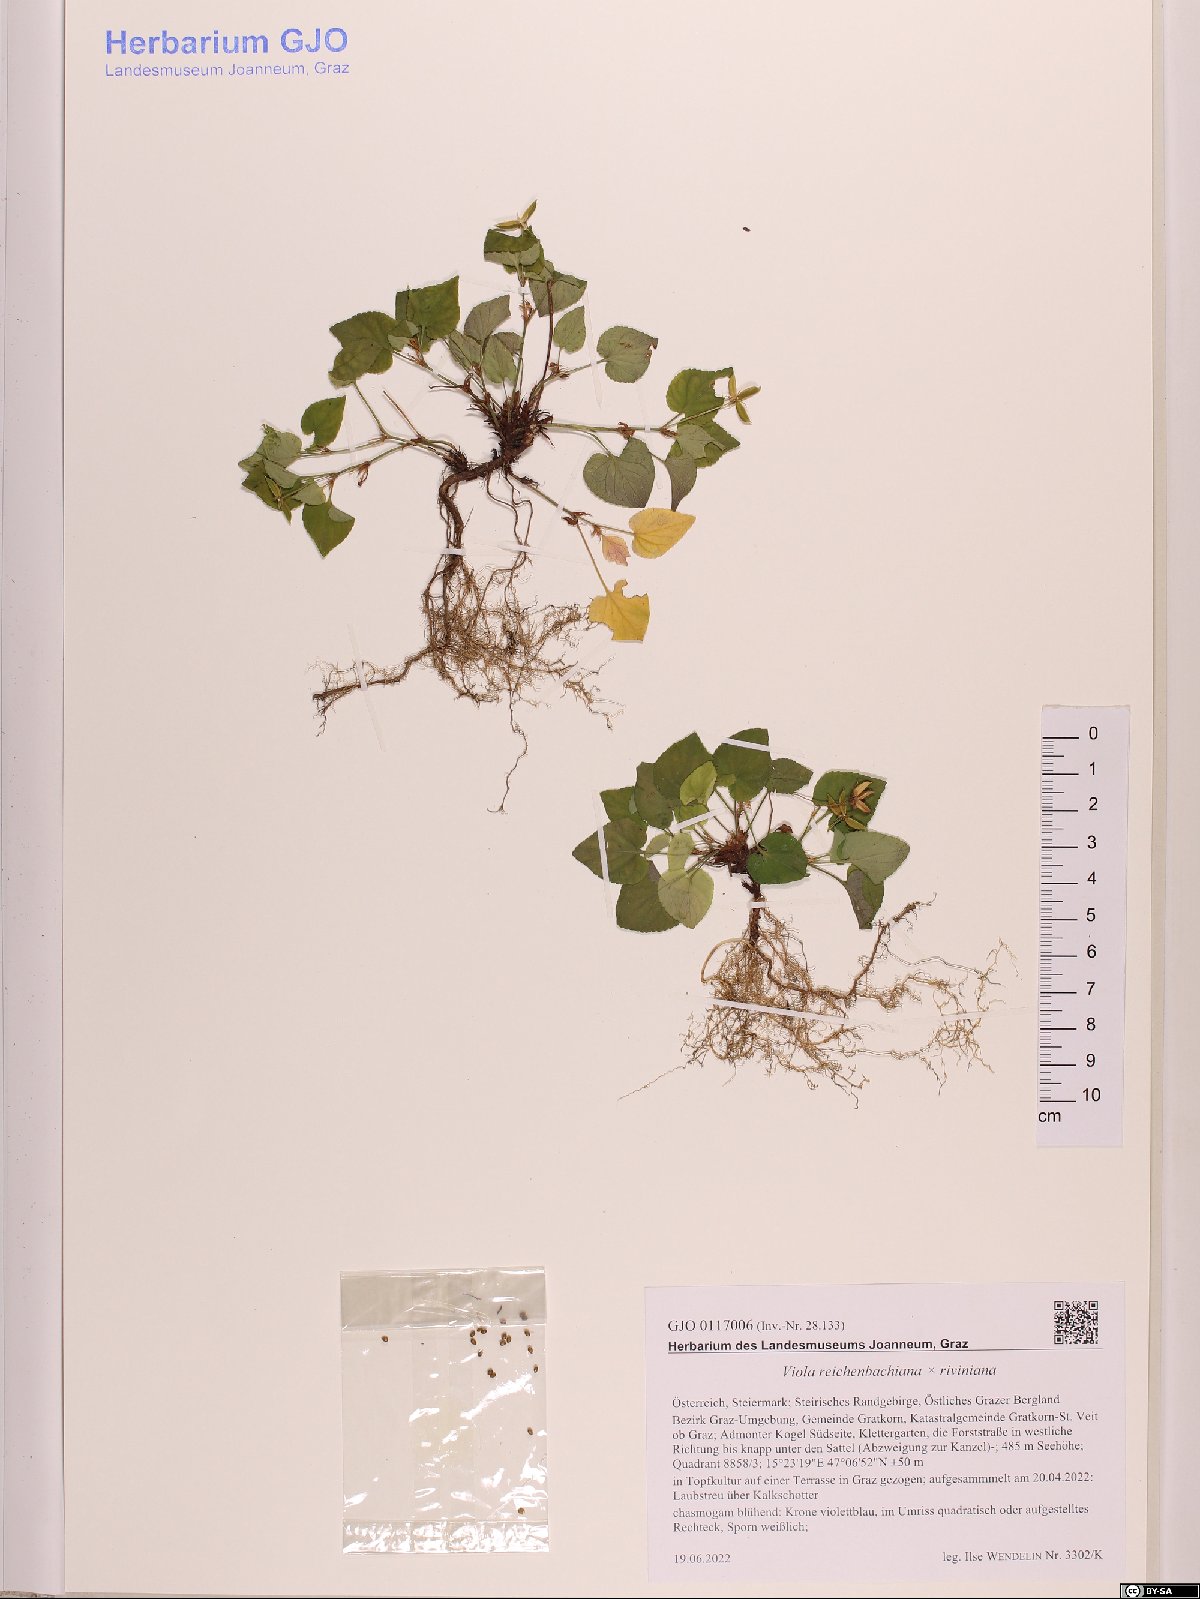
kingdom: Plantae
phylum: Tracheophyta
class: Magnoliopsida
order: Malpighiales
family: Violaceae
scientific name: Violaceae
